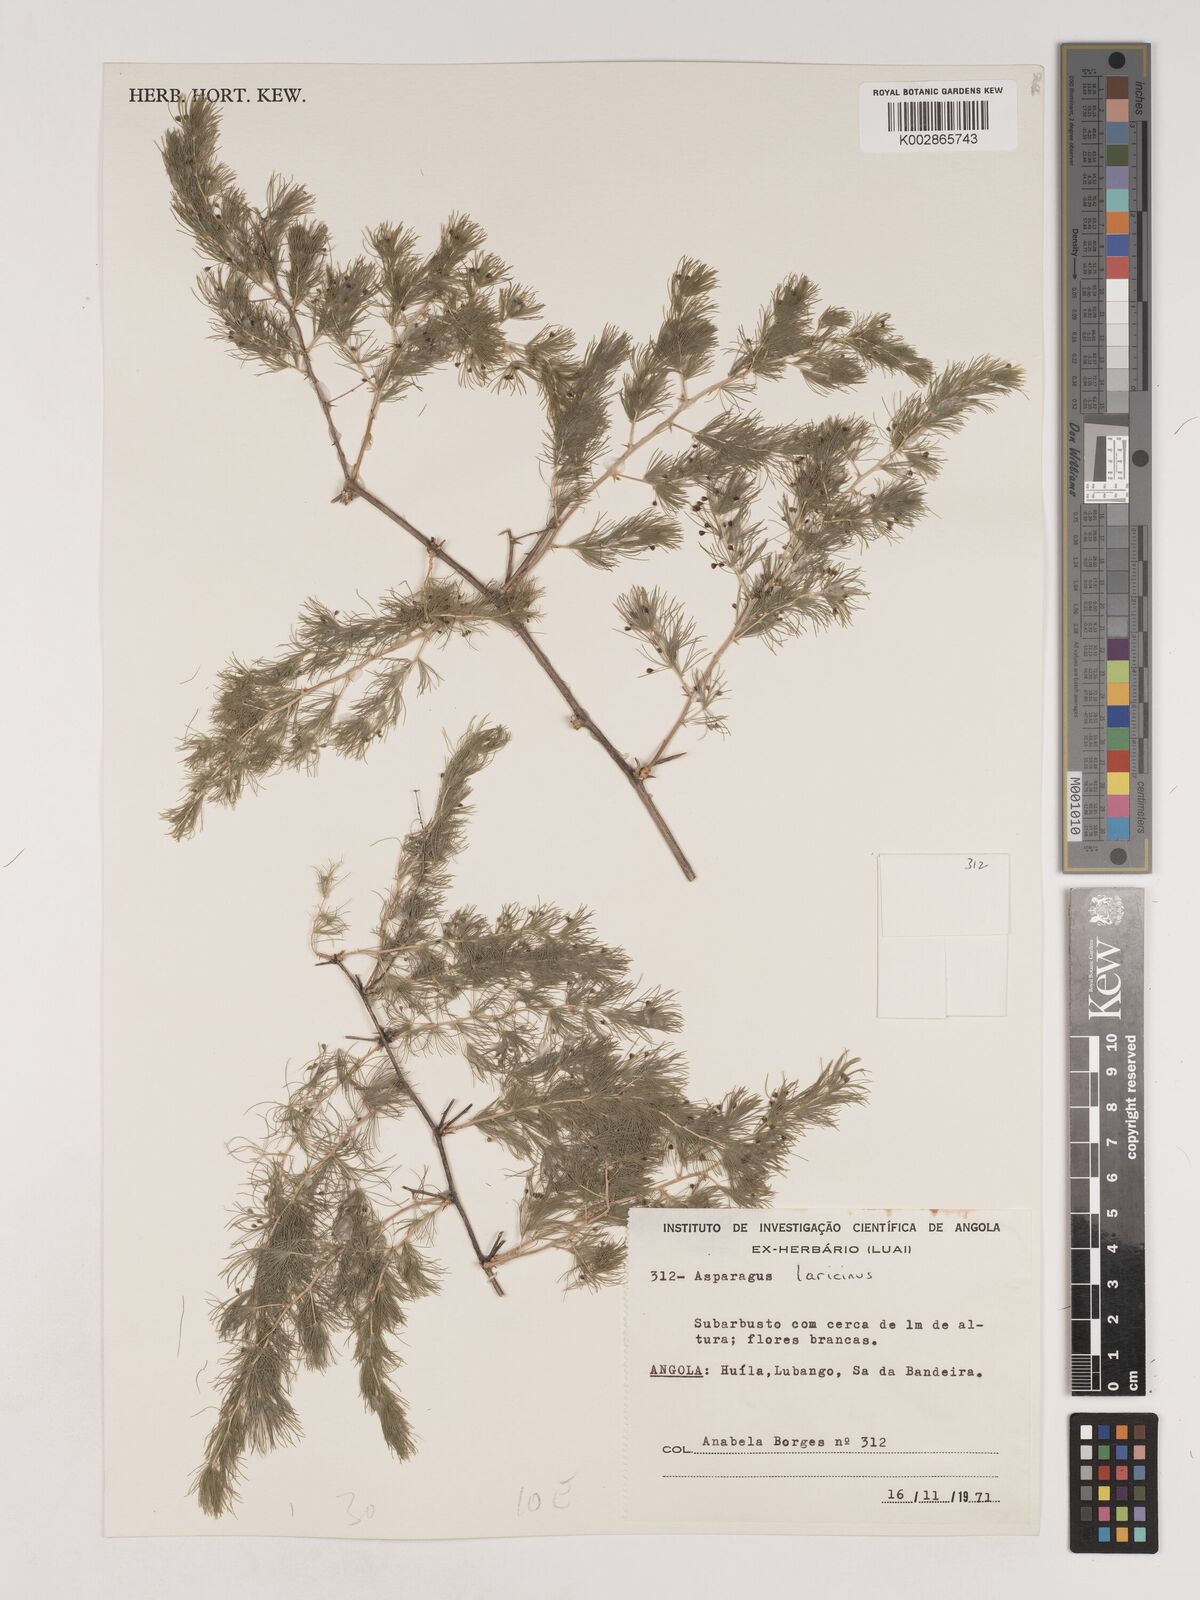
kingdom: Plantae
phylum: Tracheophyta
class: Liliopsida
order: Asparagales
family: Asparagaceae
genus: Asparagus
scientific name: Asparagus laricinus
